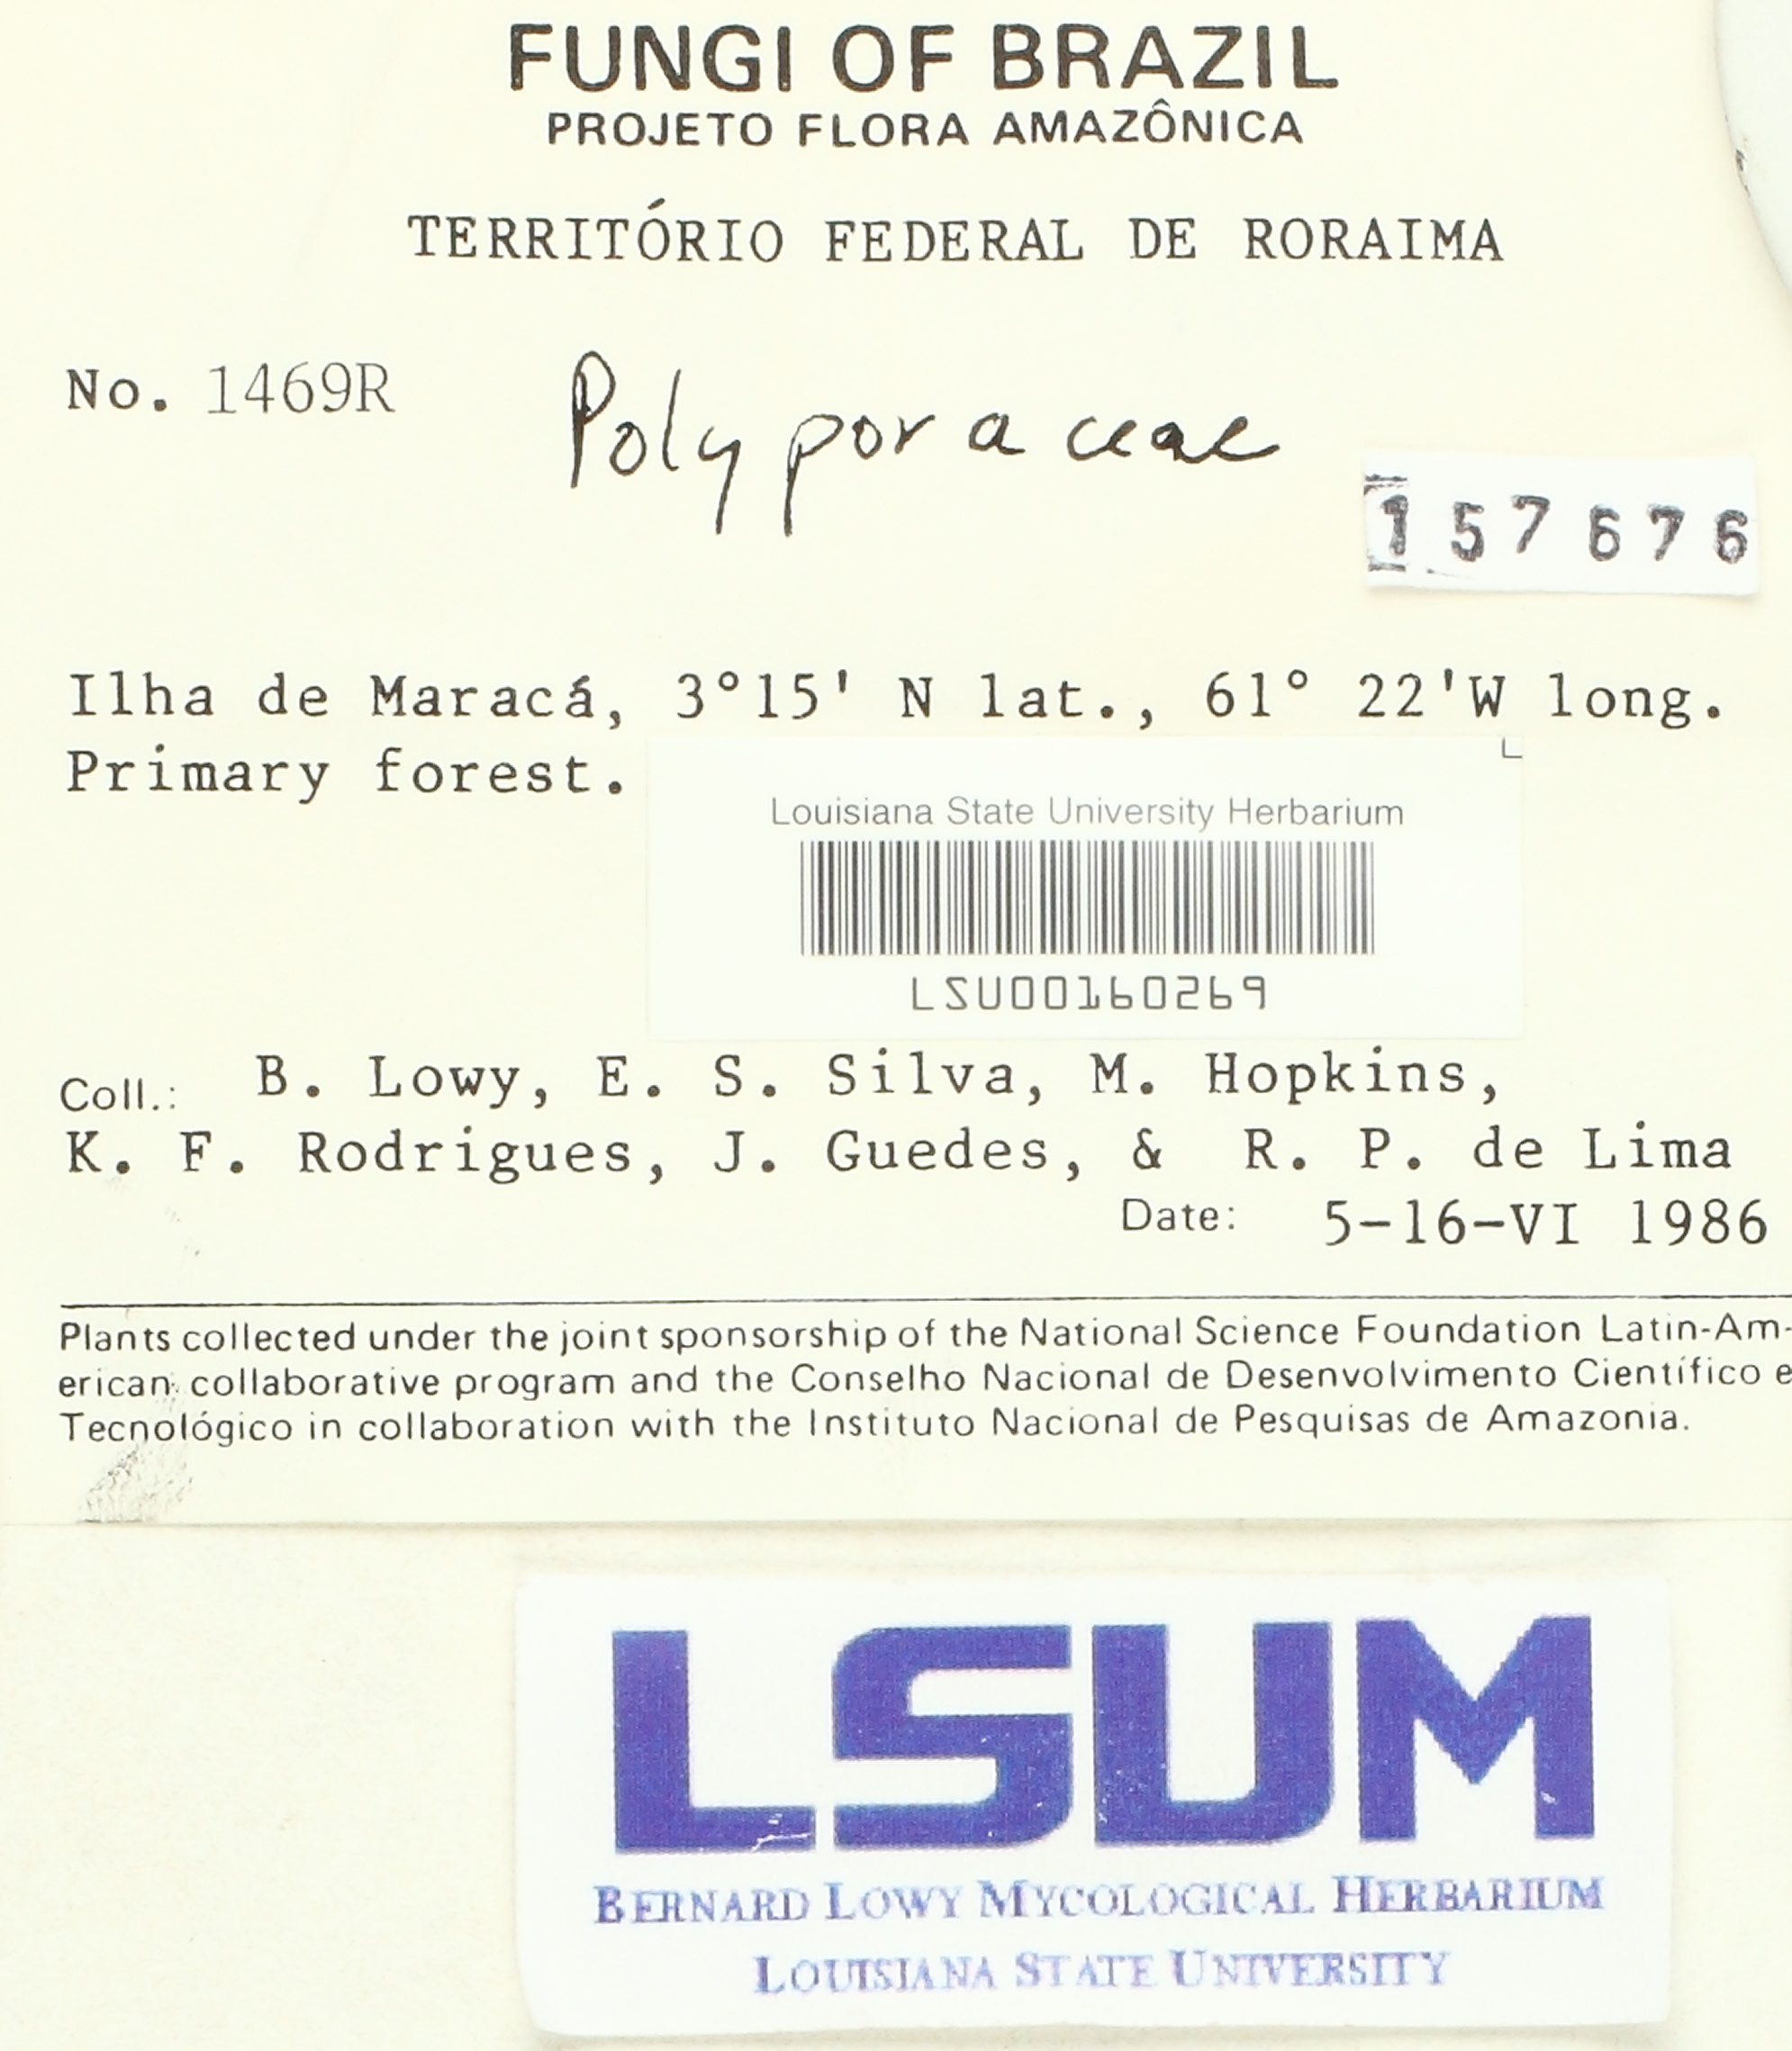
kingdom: Fungi
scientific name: Fungi
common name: Fungi
